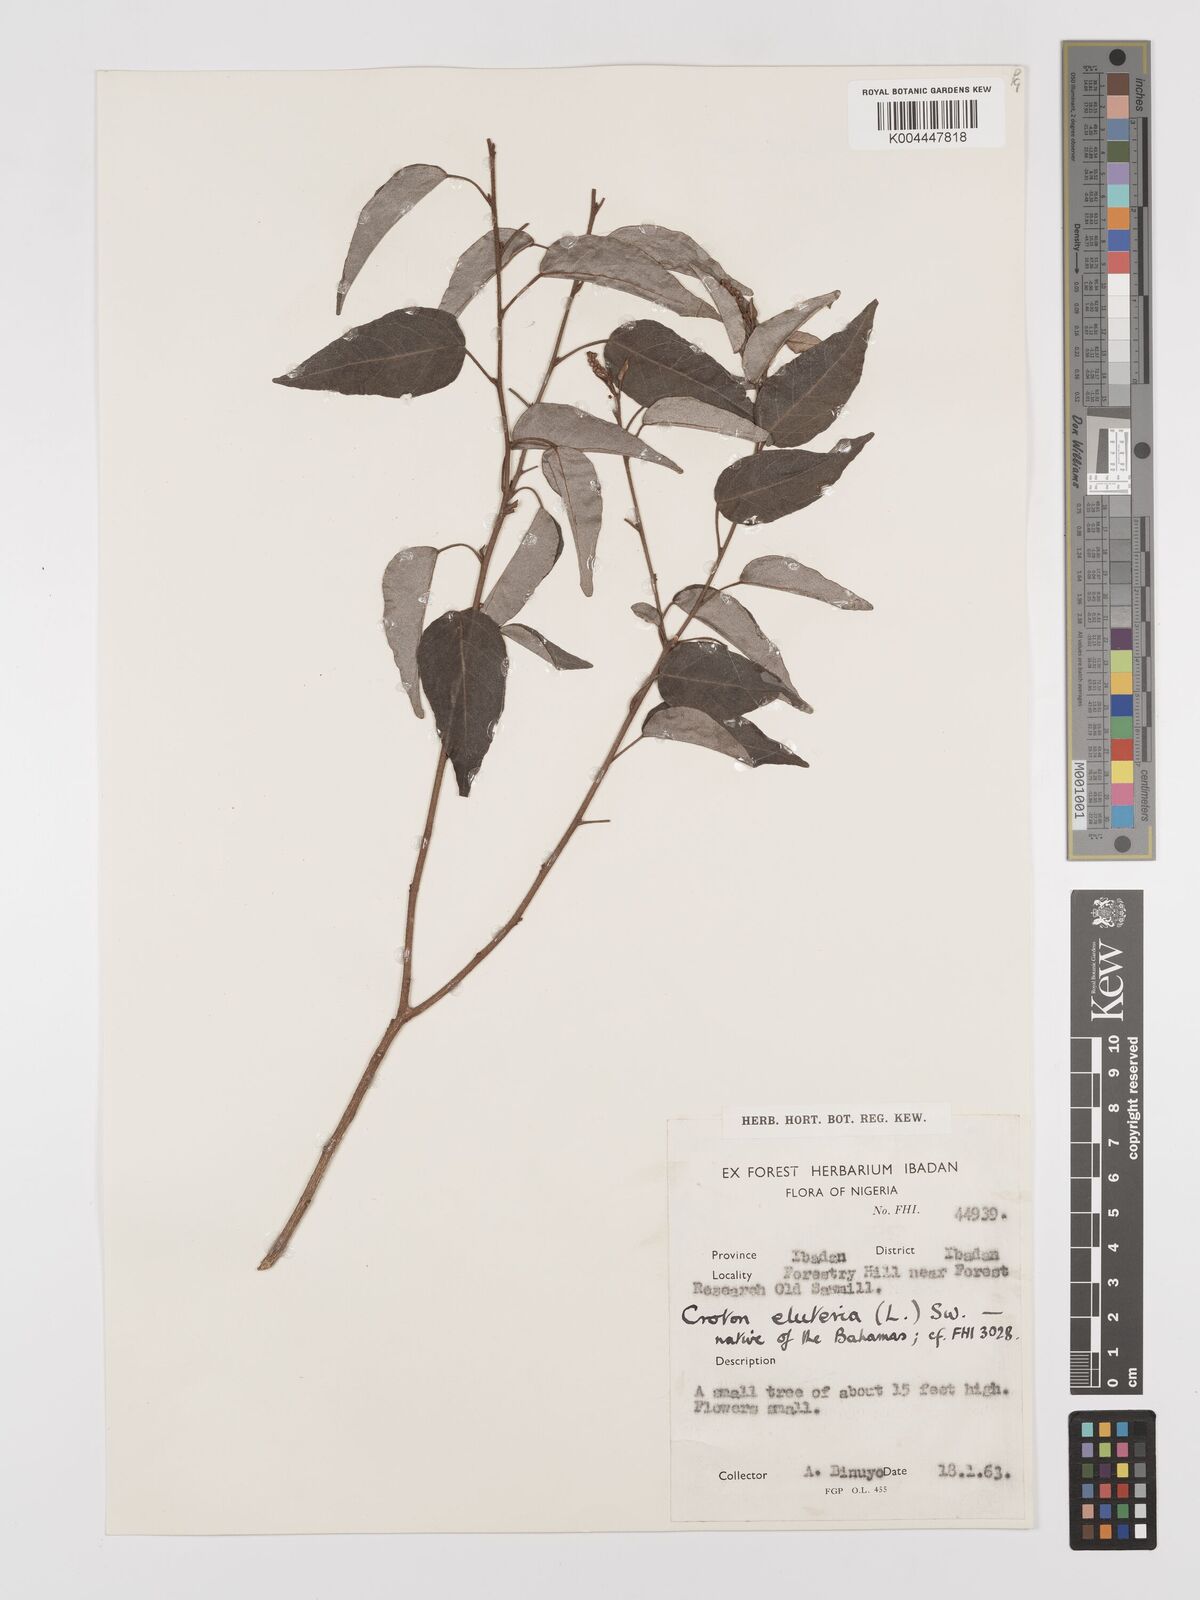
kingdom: Plantae
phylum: Tracheophyta
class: Magnoliopsida
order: Malpighiales
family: Euphorbiaceae
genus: Croton
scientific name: Croton
